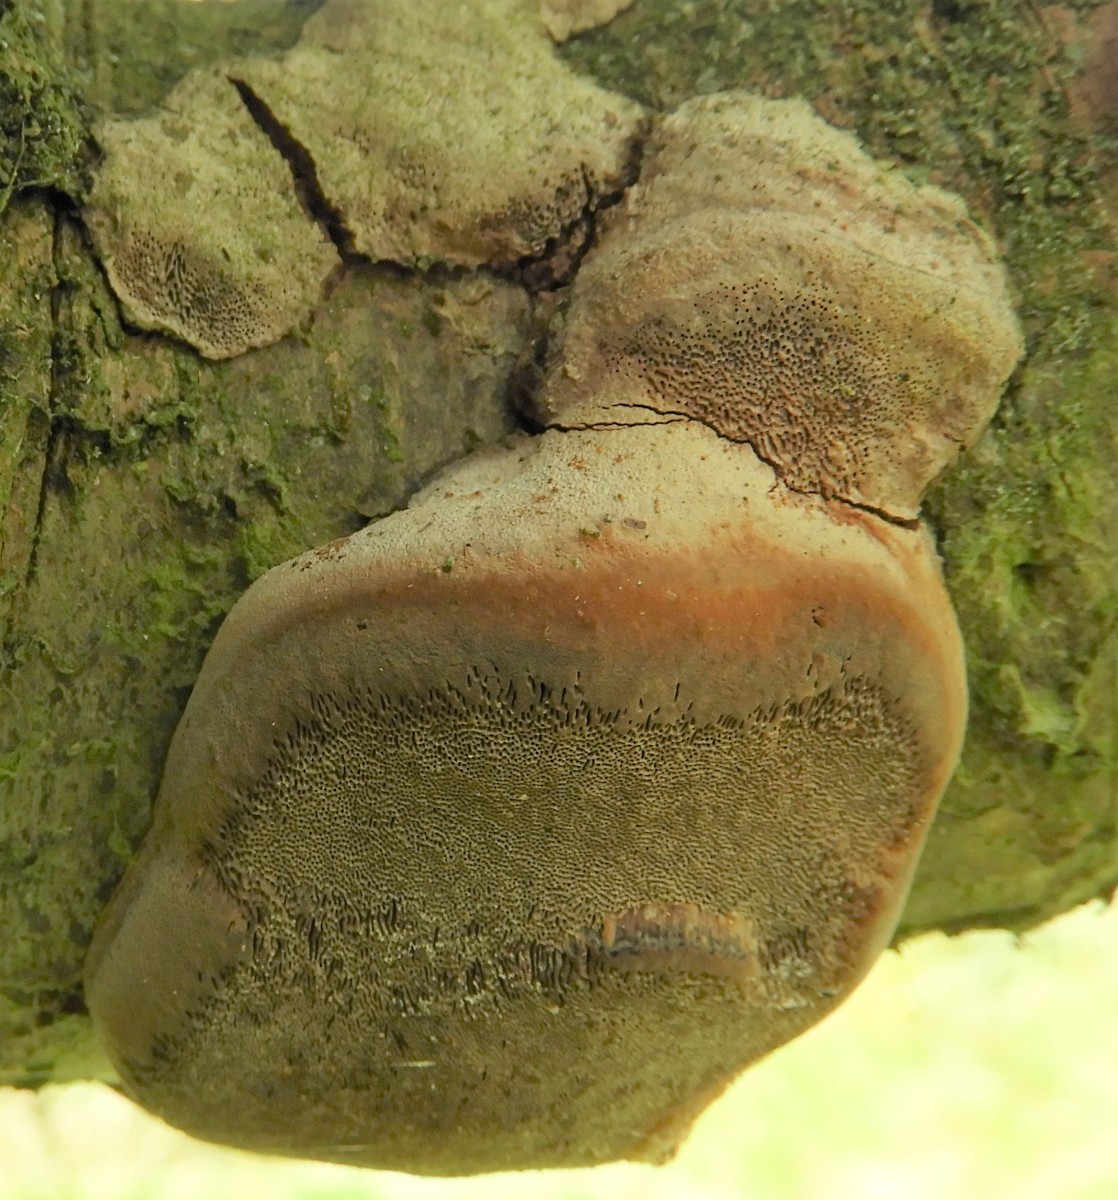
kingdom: Fungi
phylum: Basidiomycota
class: Agaricomycetes
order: Hymenochaetales
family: Hymenochaetaceae
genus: Phellinus
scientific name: Phellinus pomaceus
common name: blomme-ildporesvamp
